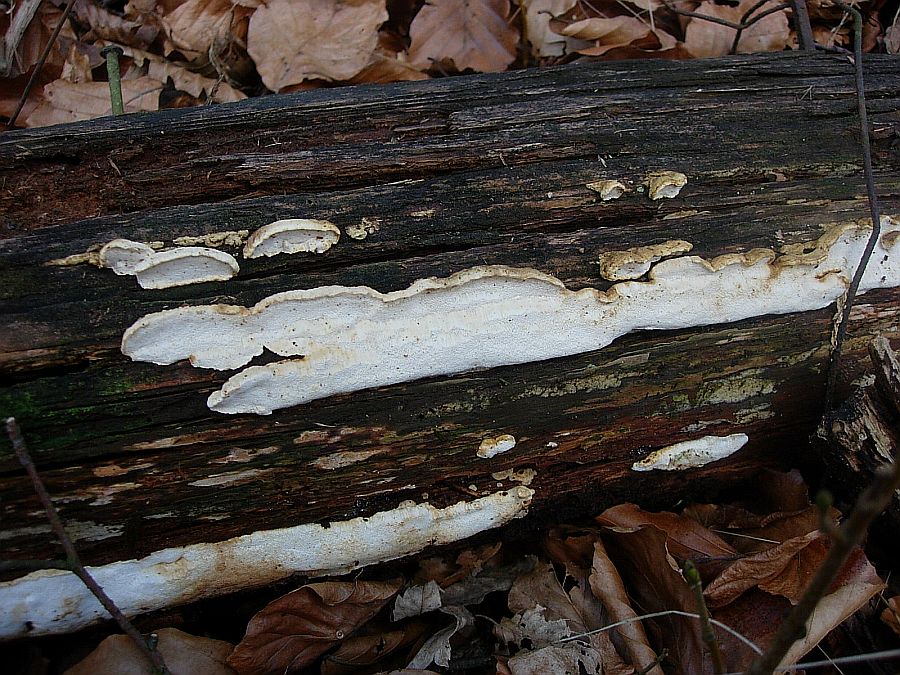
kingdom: Fungi
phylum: Basidiomycota
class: Agaricomycetes
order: Polyporales
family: Fomitopsidaceae
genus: Neoantrodia
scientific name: Neoantrodia serialis
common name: række-sejporesvamp
